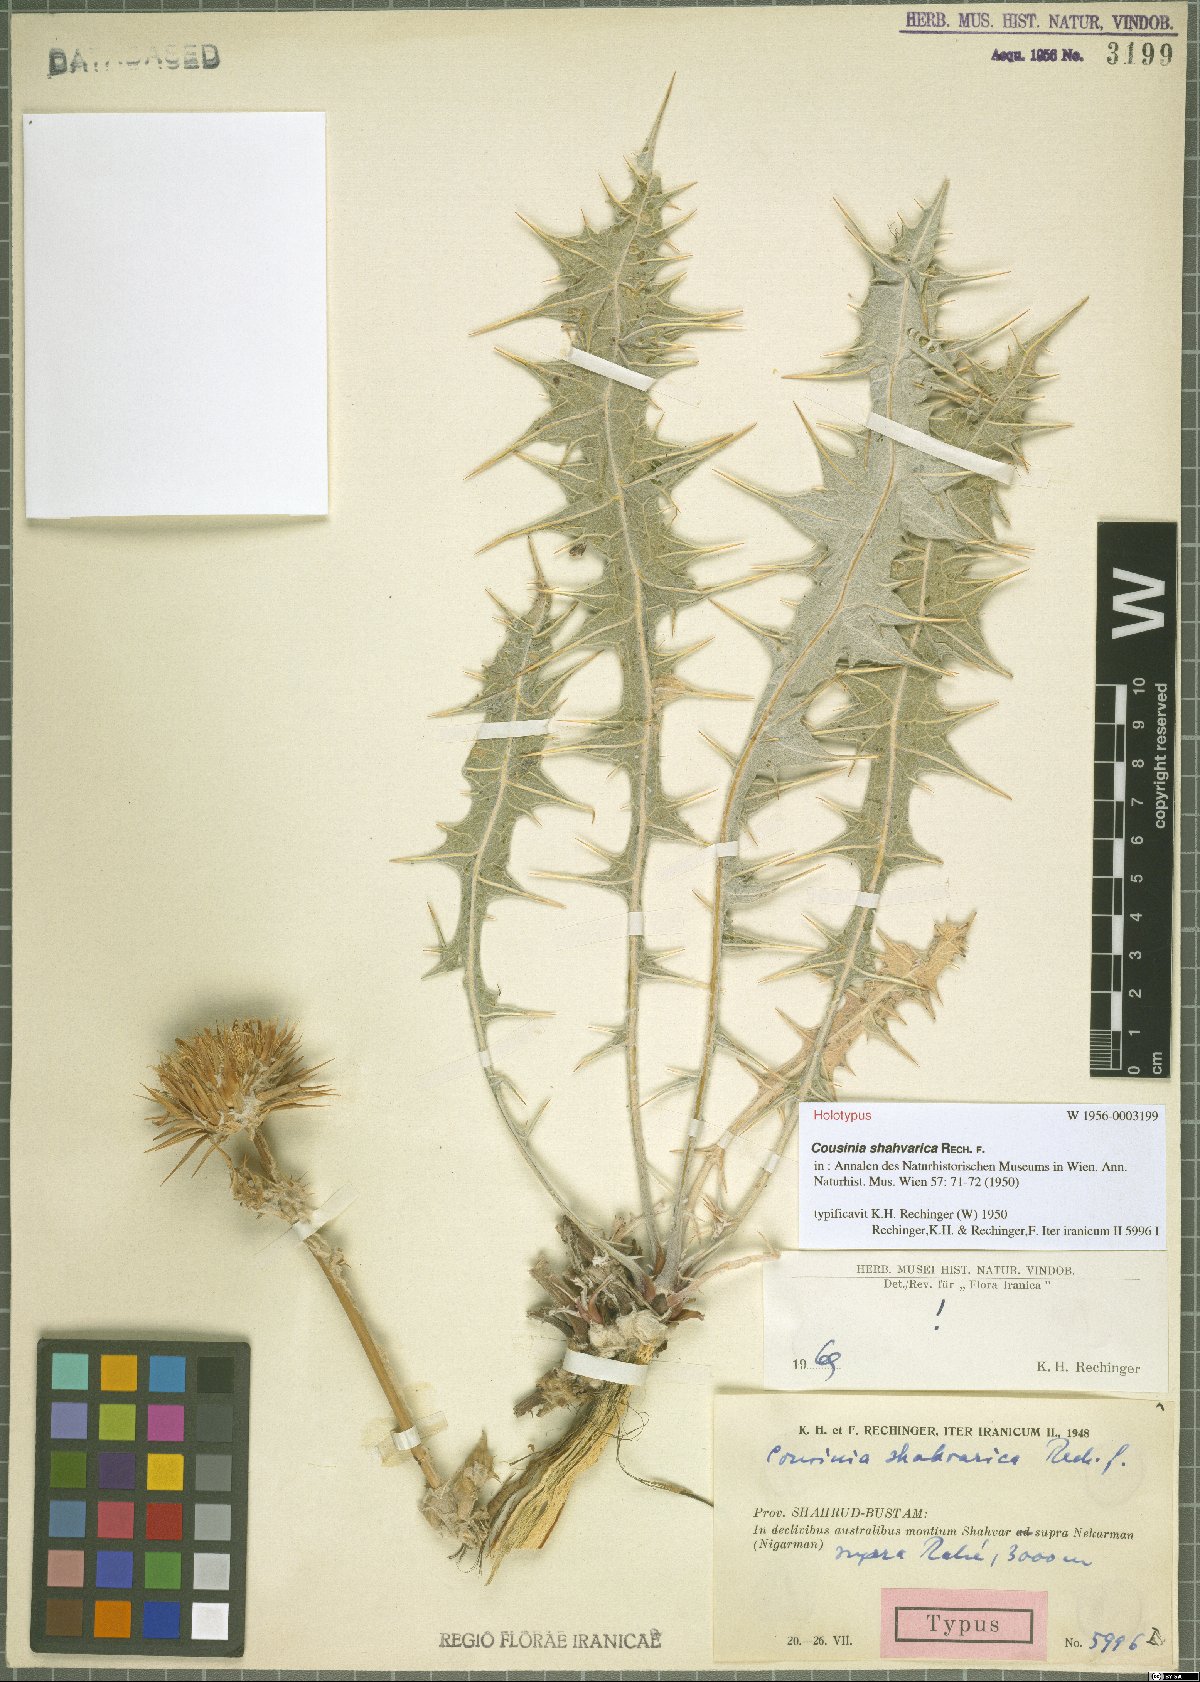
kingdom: Plantae
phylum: Tracheophyta
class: Magnoliopsida
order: Asterales
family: Asteraceae
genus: Cousinia
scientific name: Cousinia shahvarica
